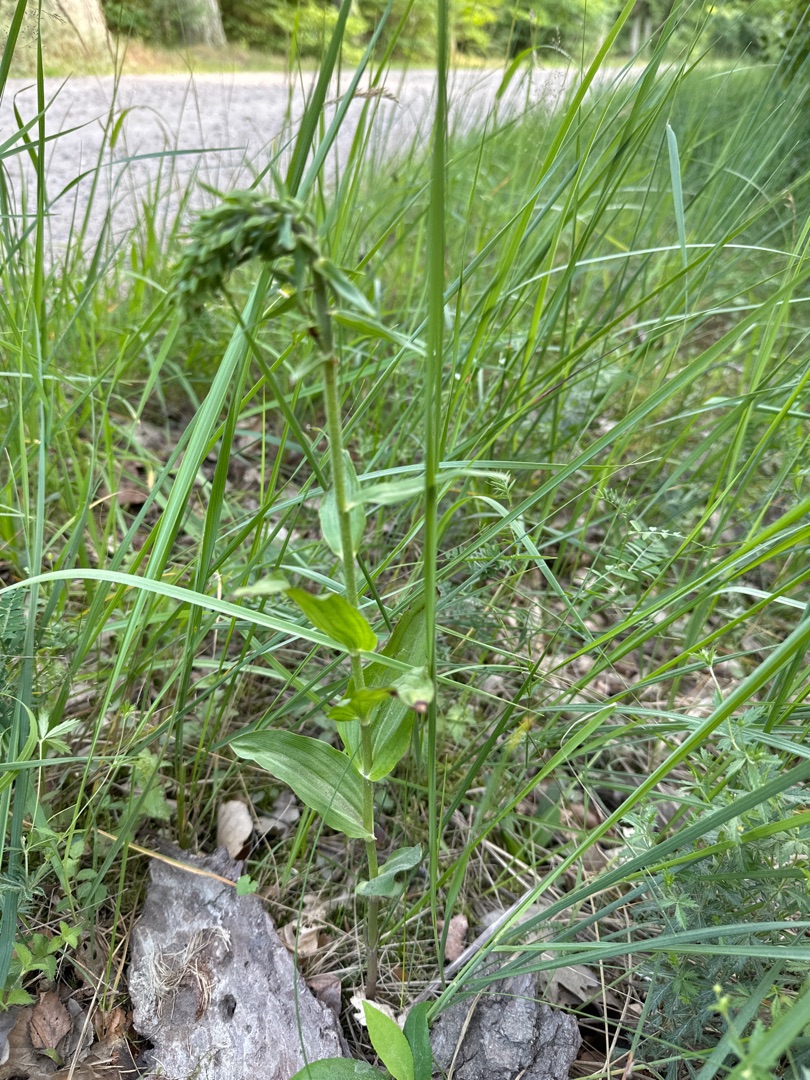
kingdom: Plantae
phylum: Tracheophyta
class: Liliopsida
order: Asparagales
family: Orchidaceae
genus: Epipactis
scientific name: Epipactis helleborine
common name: Skov-hullæbe
